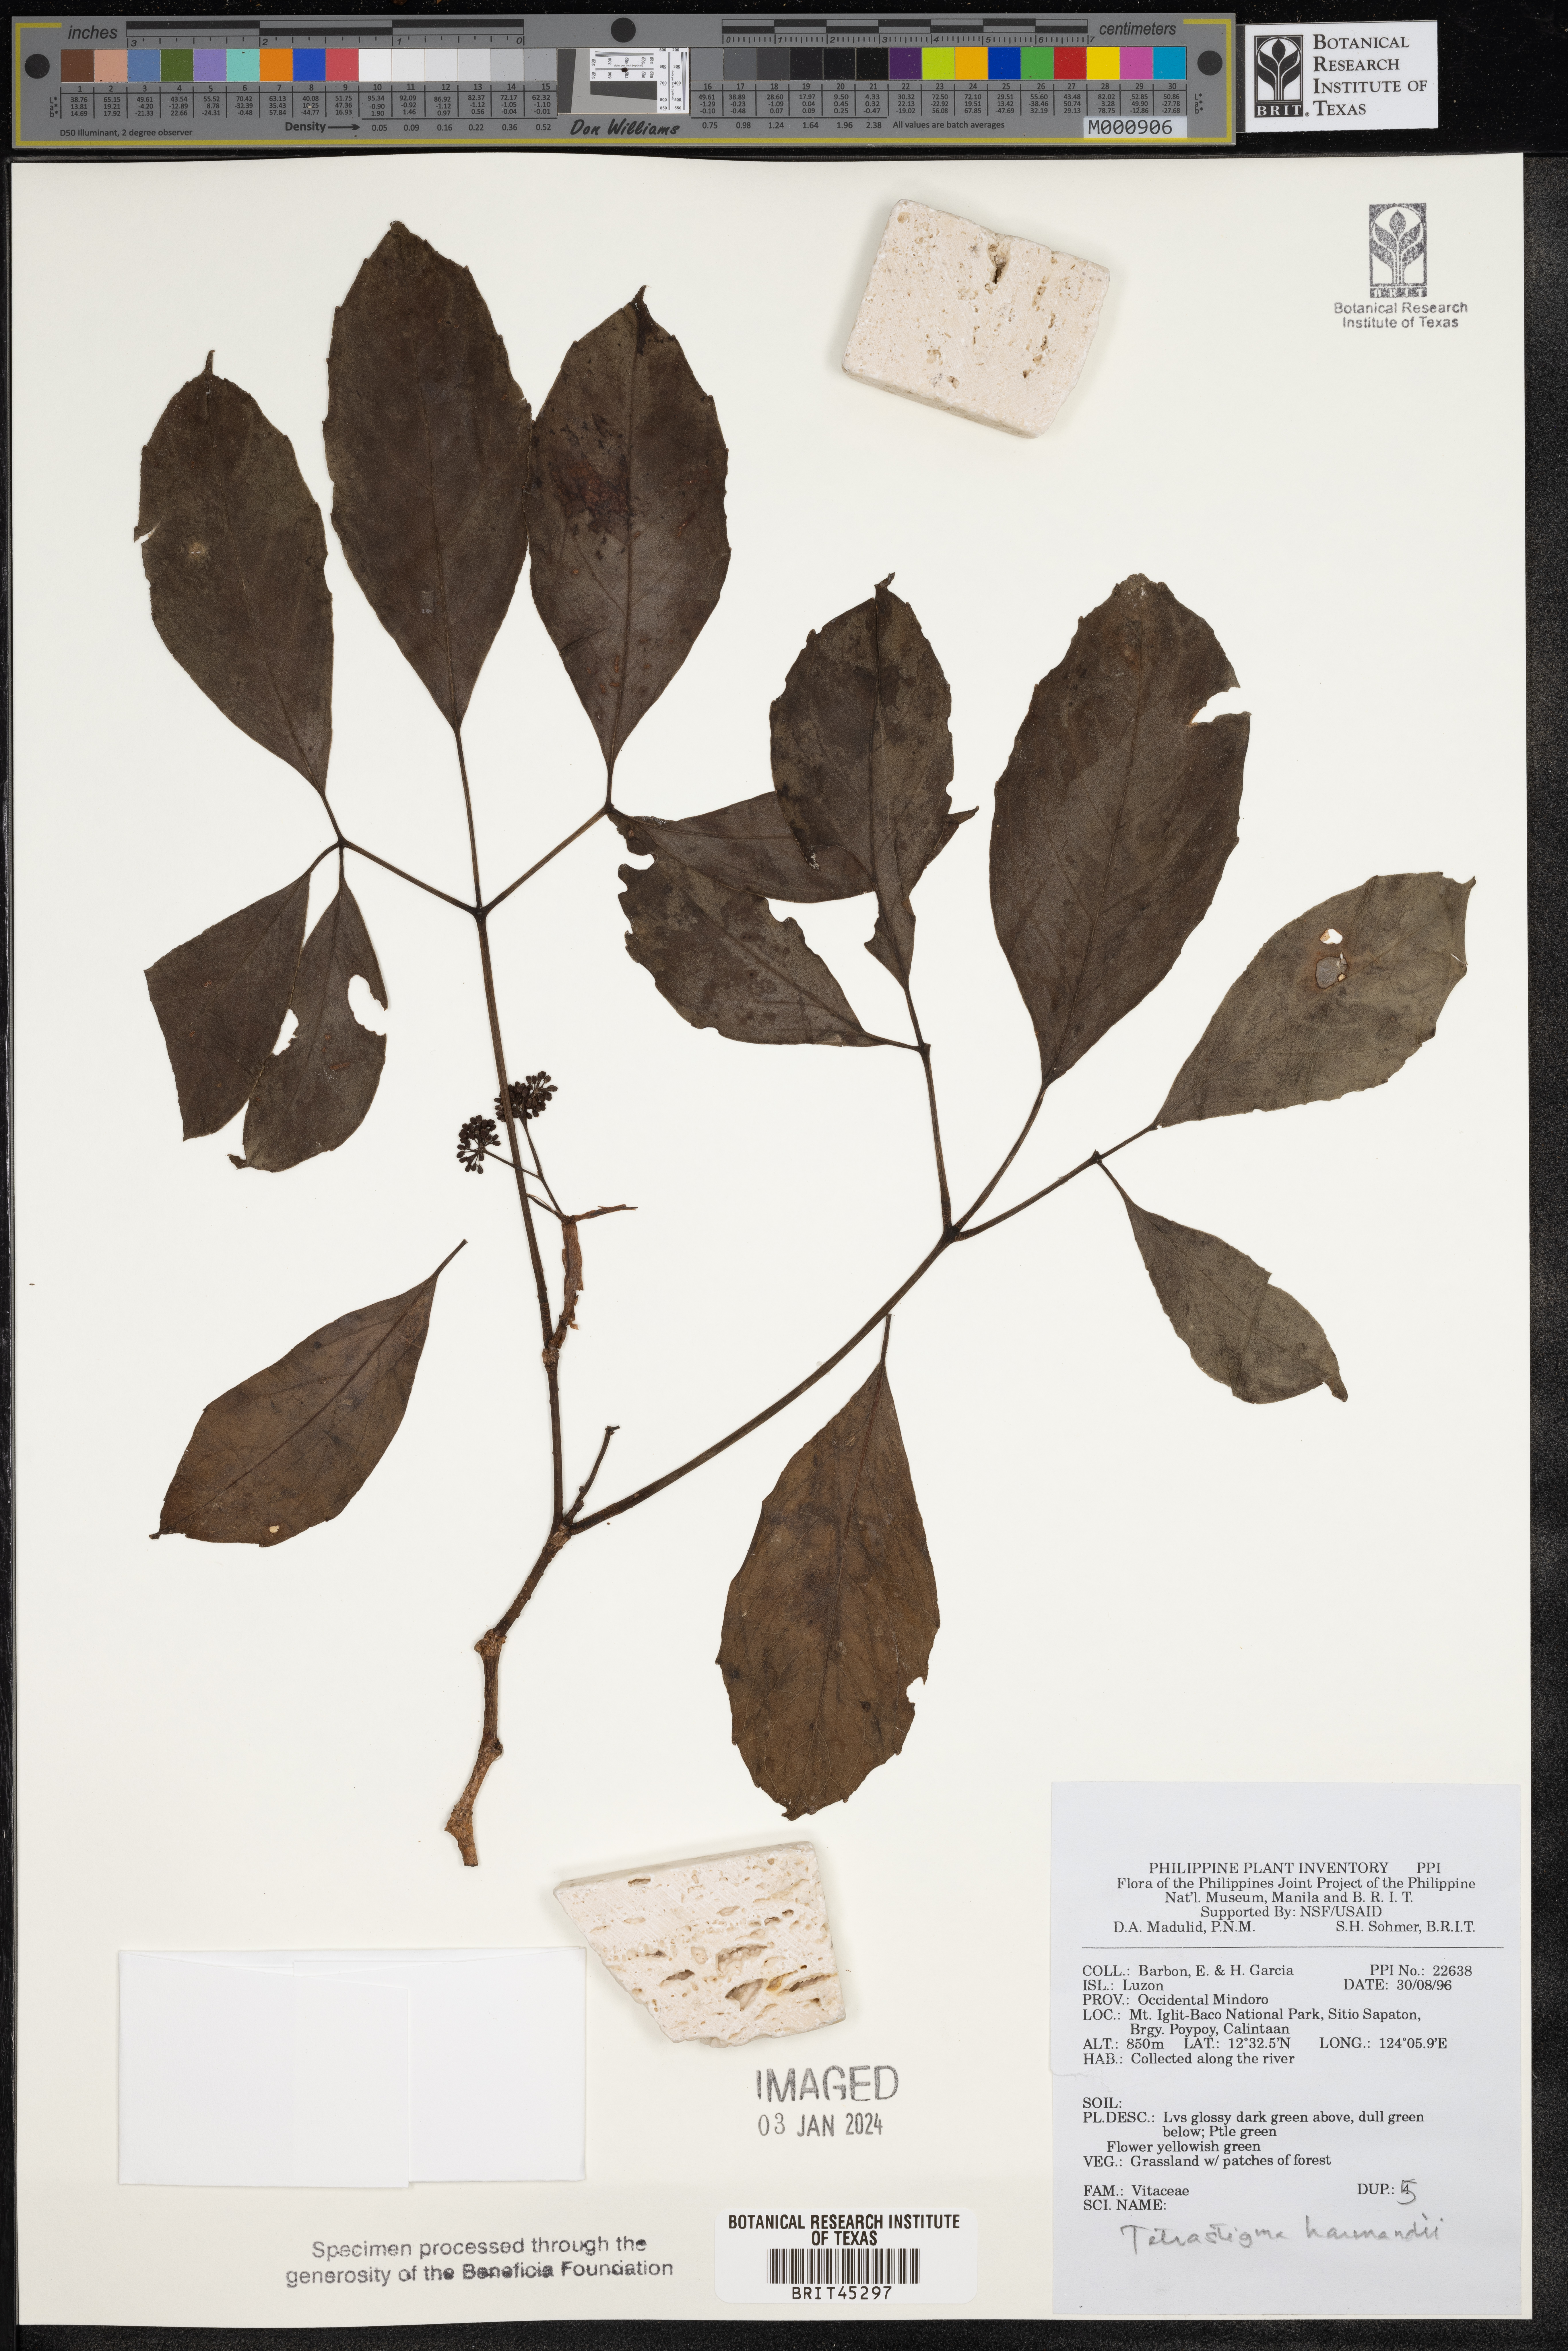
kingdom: Plantae
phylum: Tracheophyta
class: Magnoliopsida
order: Vitales
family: Vitaceae
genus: Tetrastigma
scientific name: Tetrastigma harmandii
